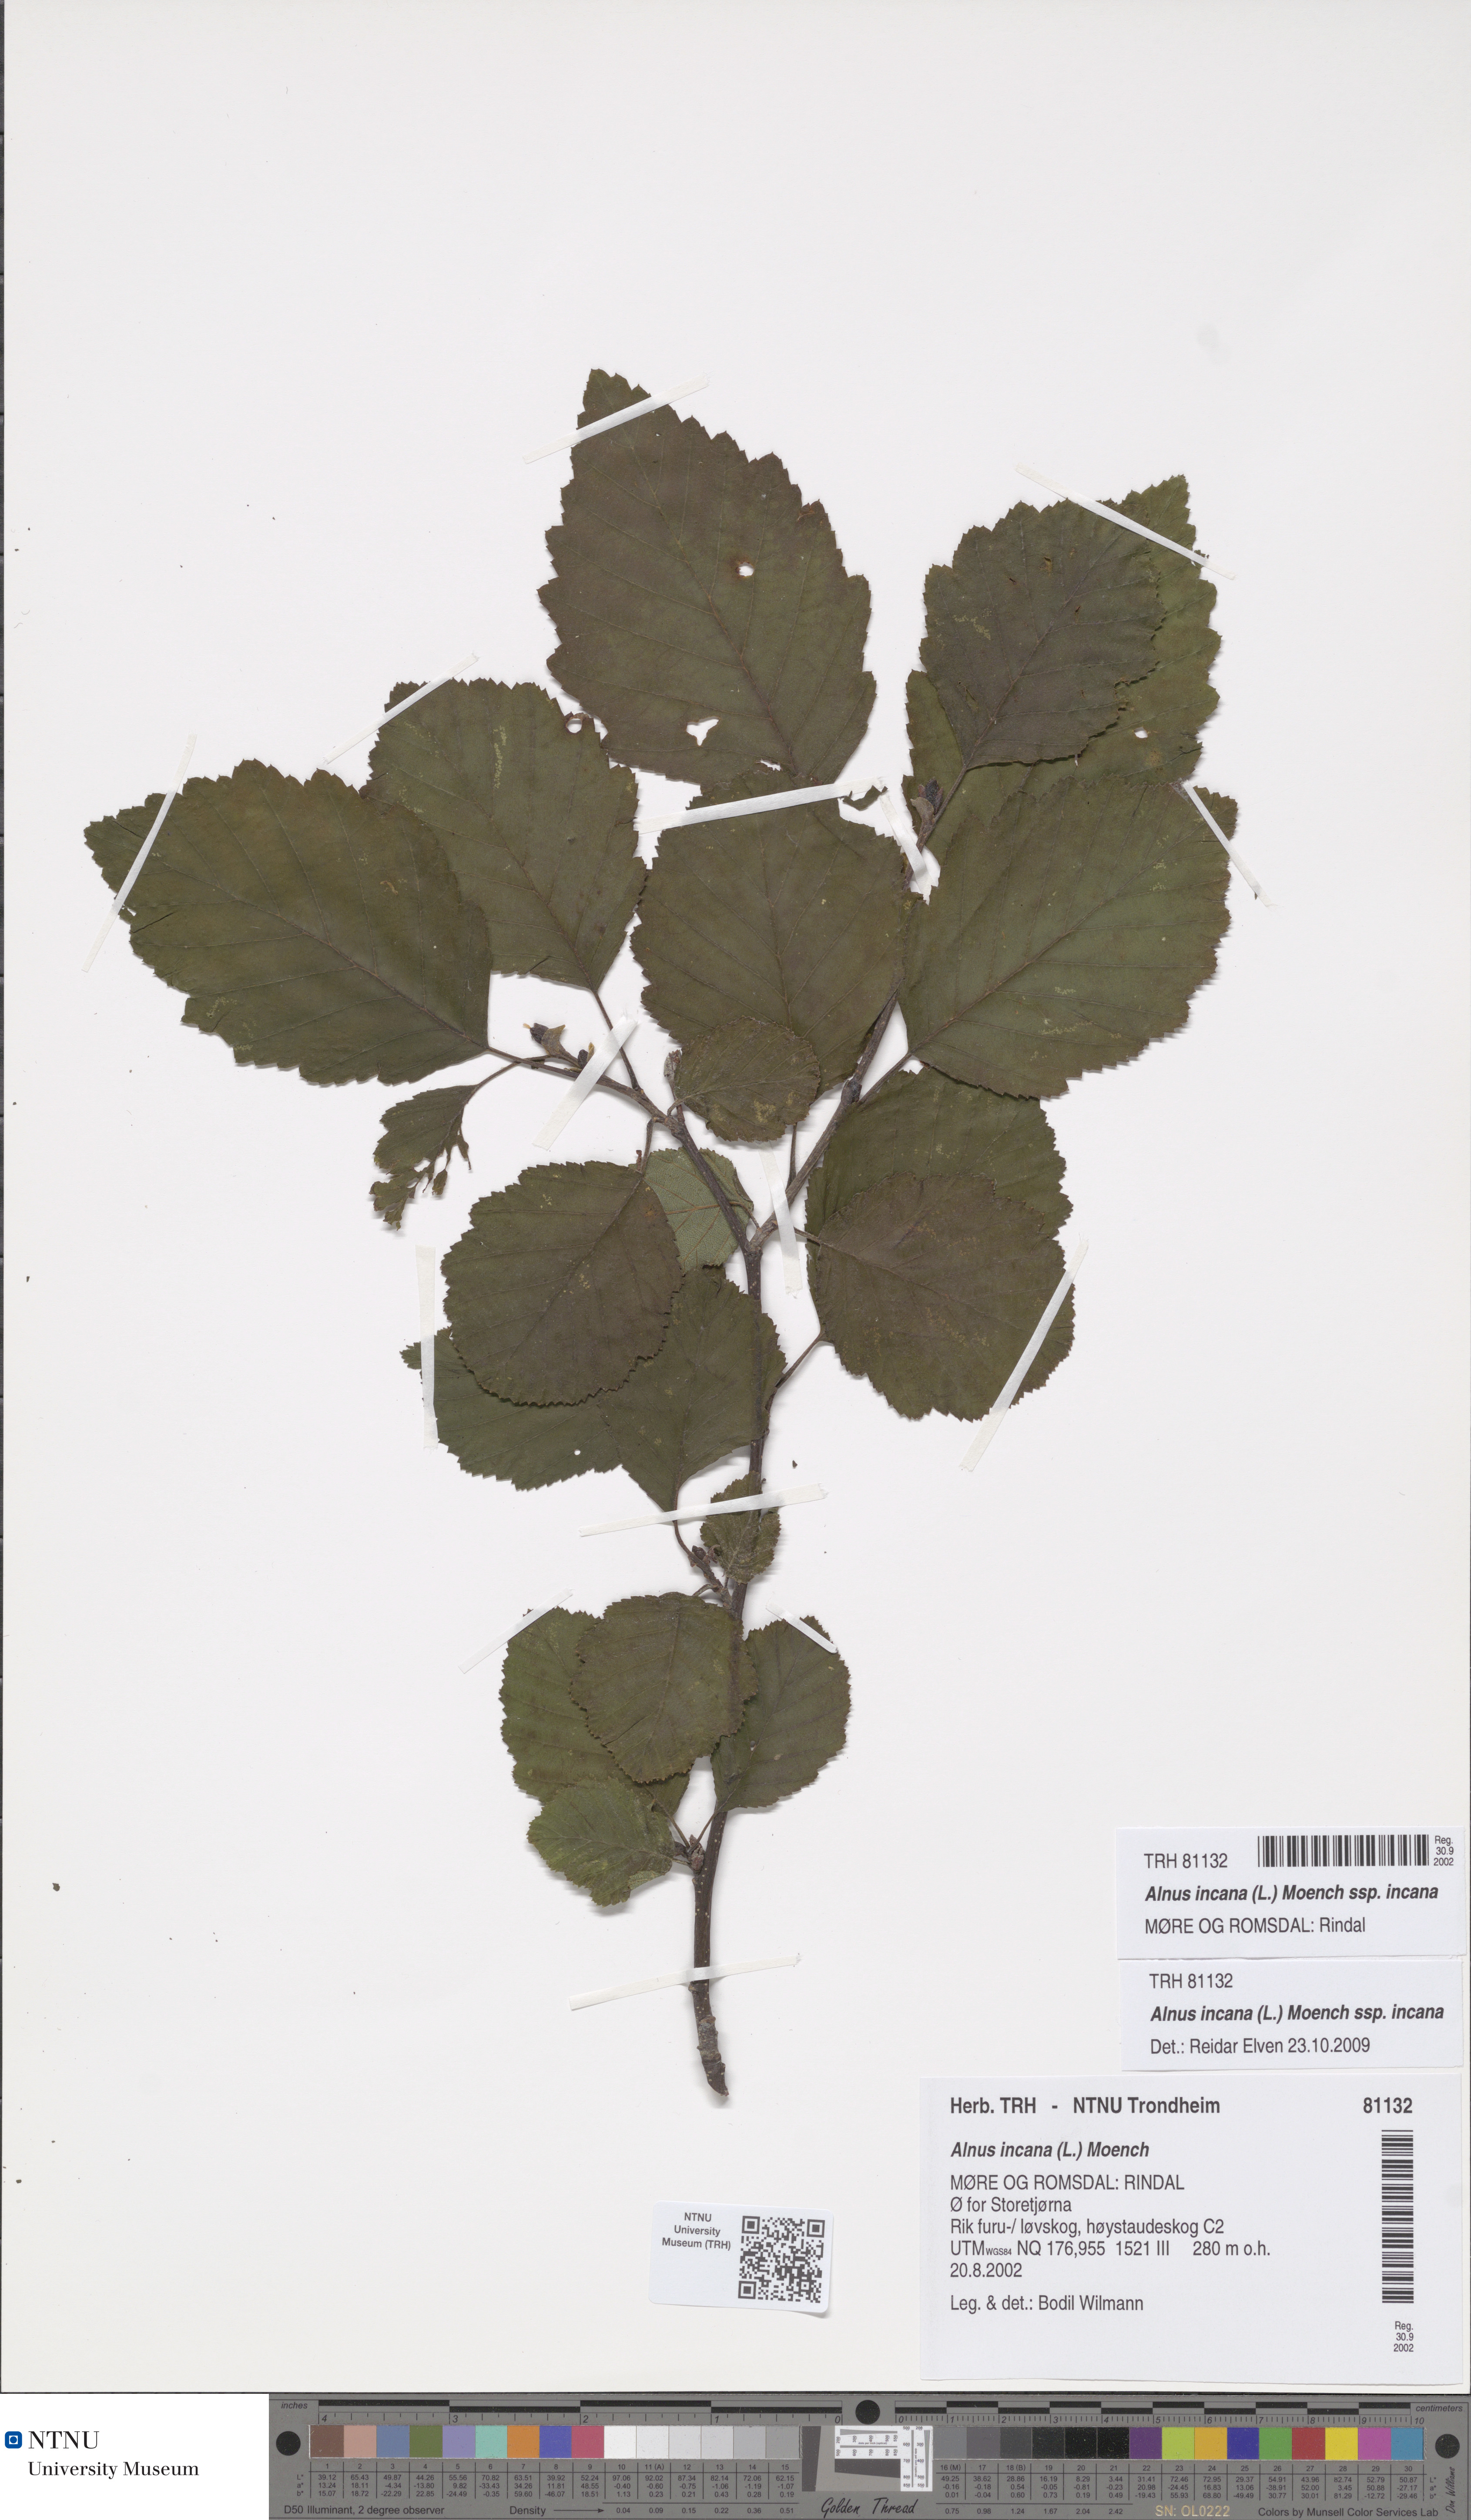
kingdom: Plantae
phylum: Tracheophyta
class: Magnoliopsida
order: Fagales
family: Betulaceae
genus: Alnus
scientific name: Alnus incana
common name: Grey alder
